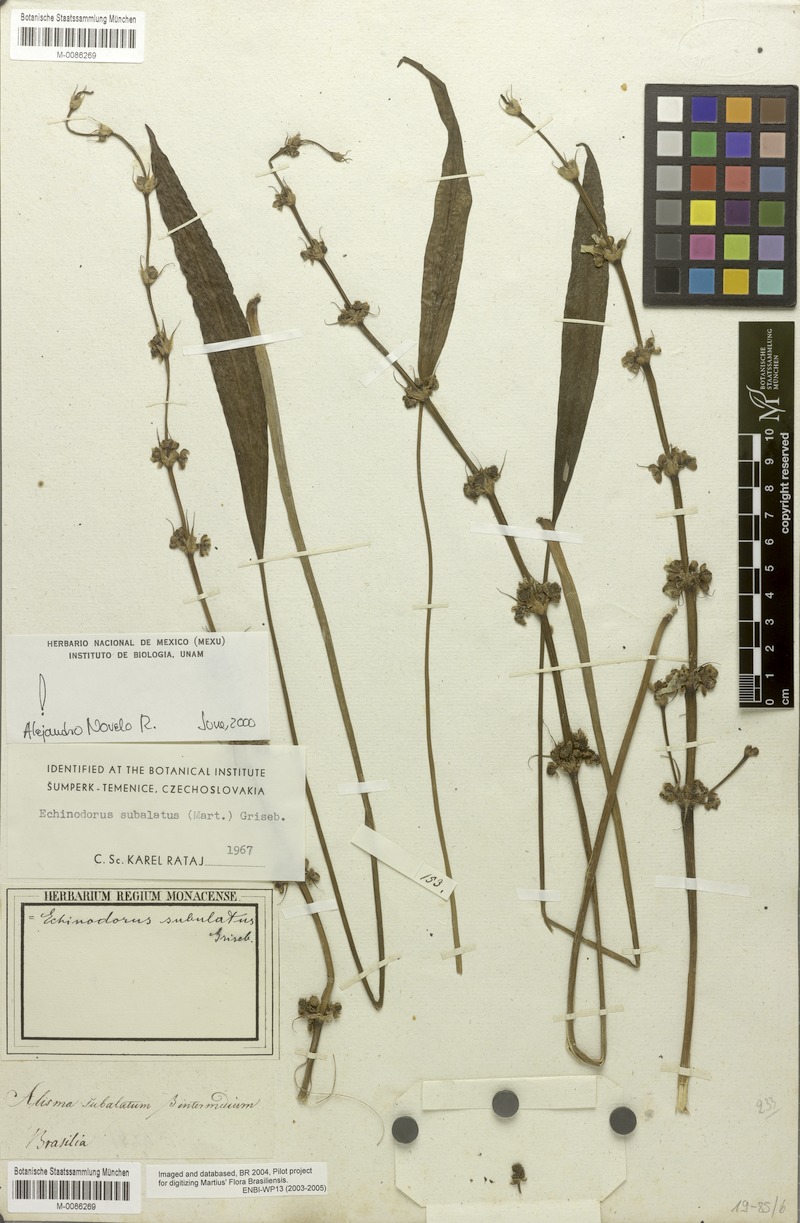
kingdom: Plantae
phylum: Tracheophyta
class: Liliopsida
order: Alismatales
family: Alismataceae
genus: Aquarius
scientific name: Aquarius subulatus
